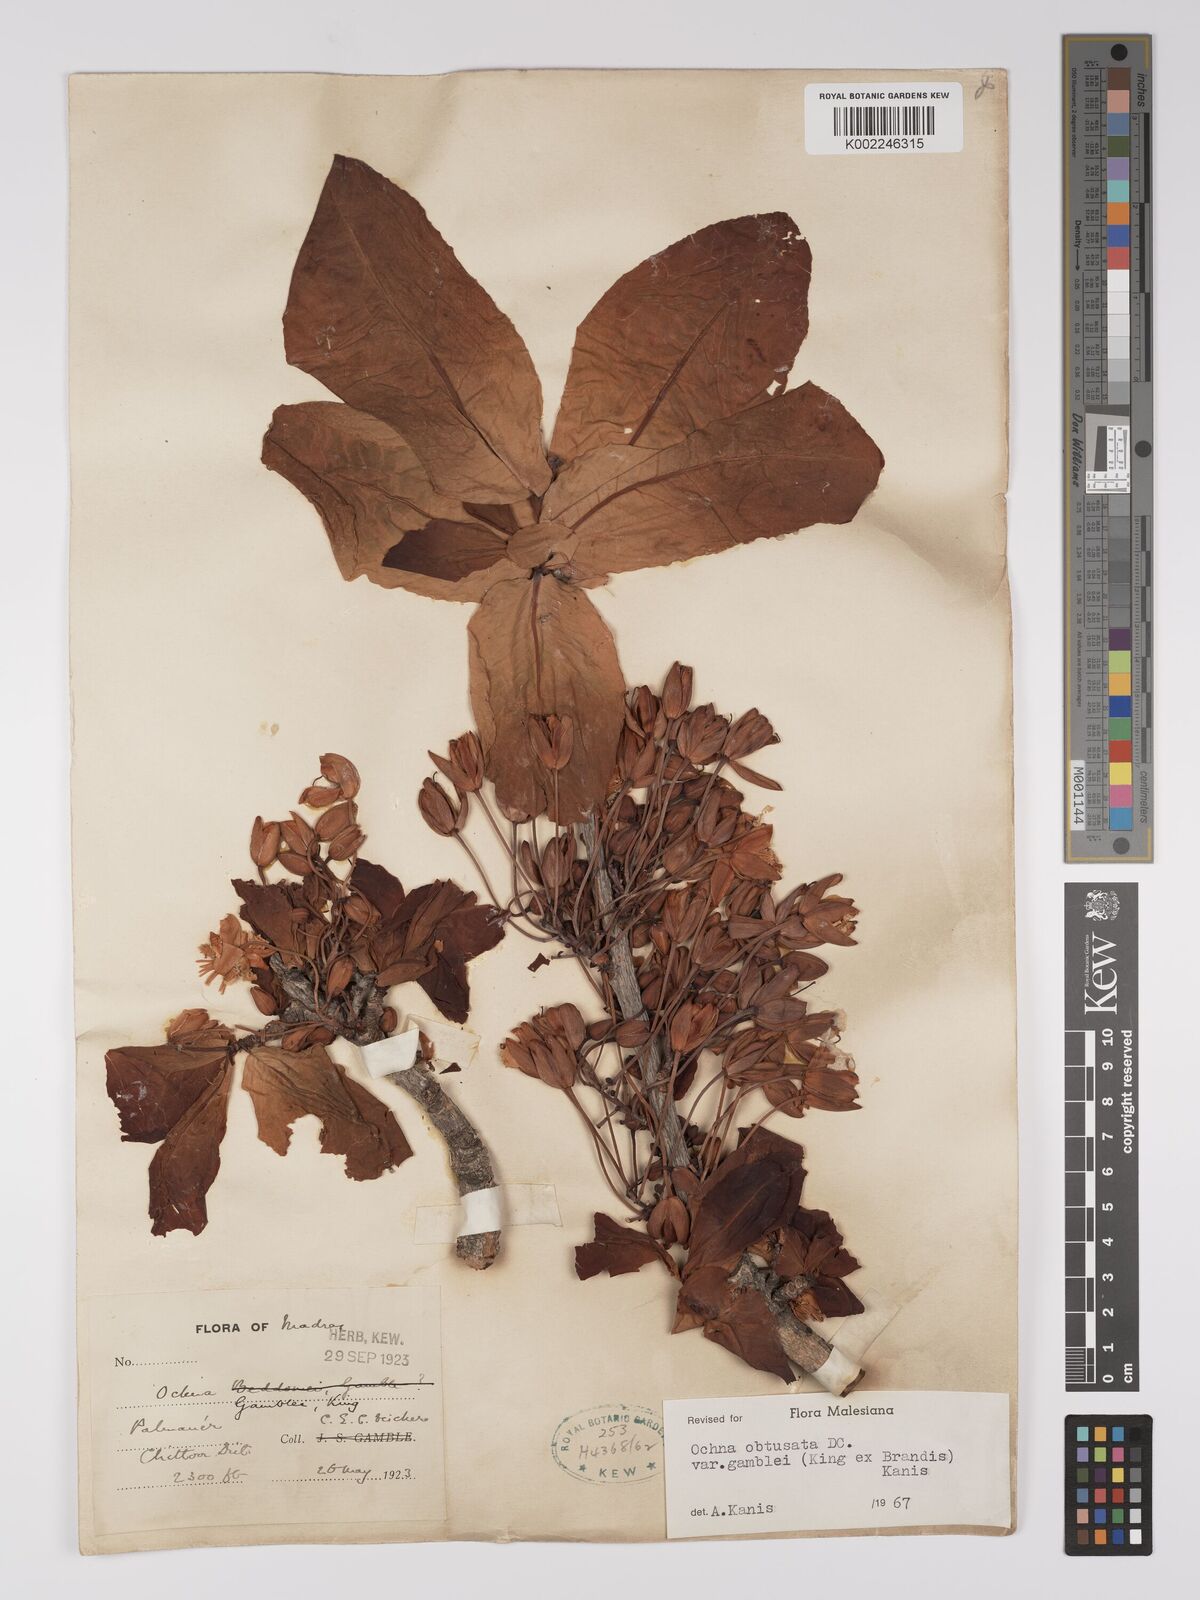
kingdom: Plantae
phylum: Tracheophyta
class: Magnoliopsida
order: Malpighiales
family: Ochnaceae
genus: Ochna
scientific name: Ochna obtusata
